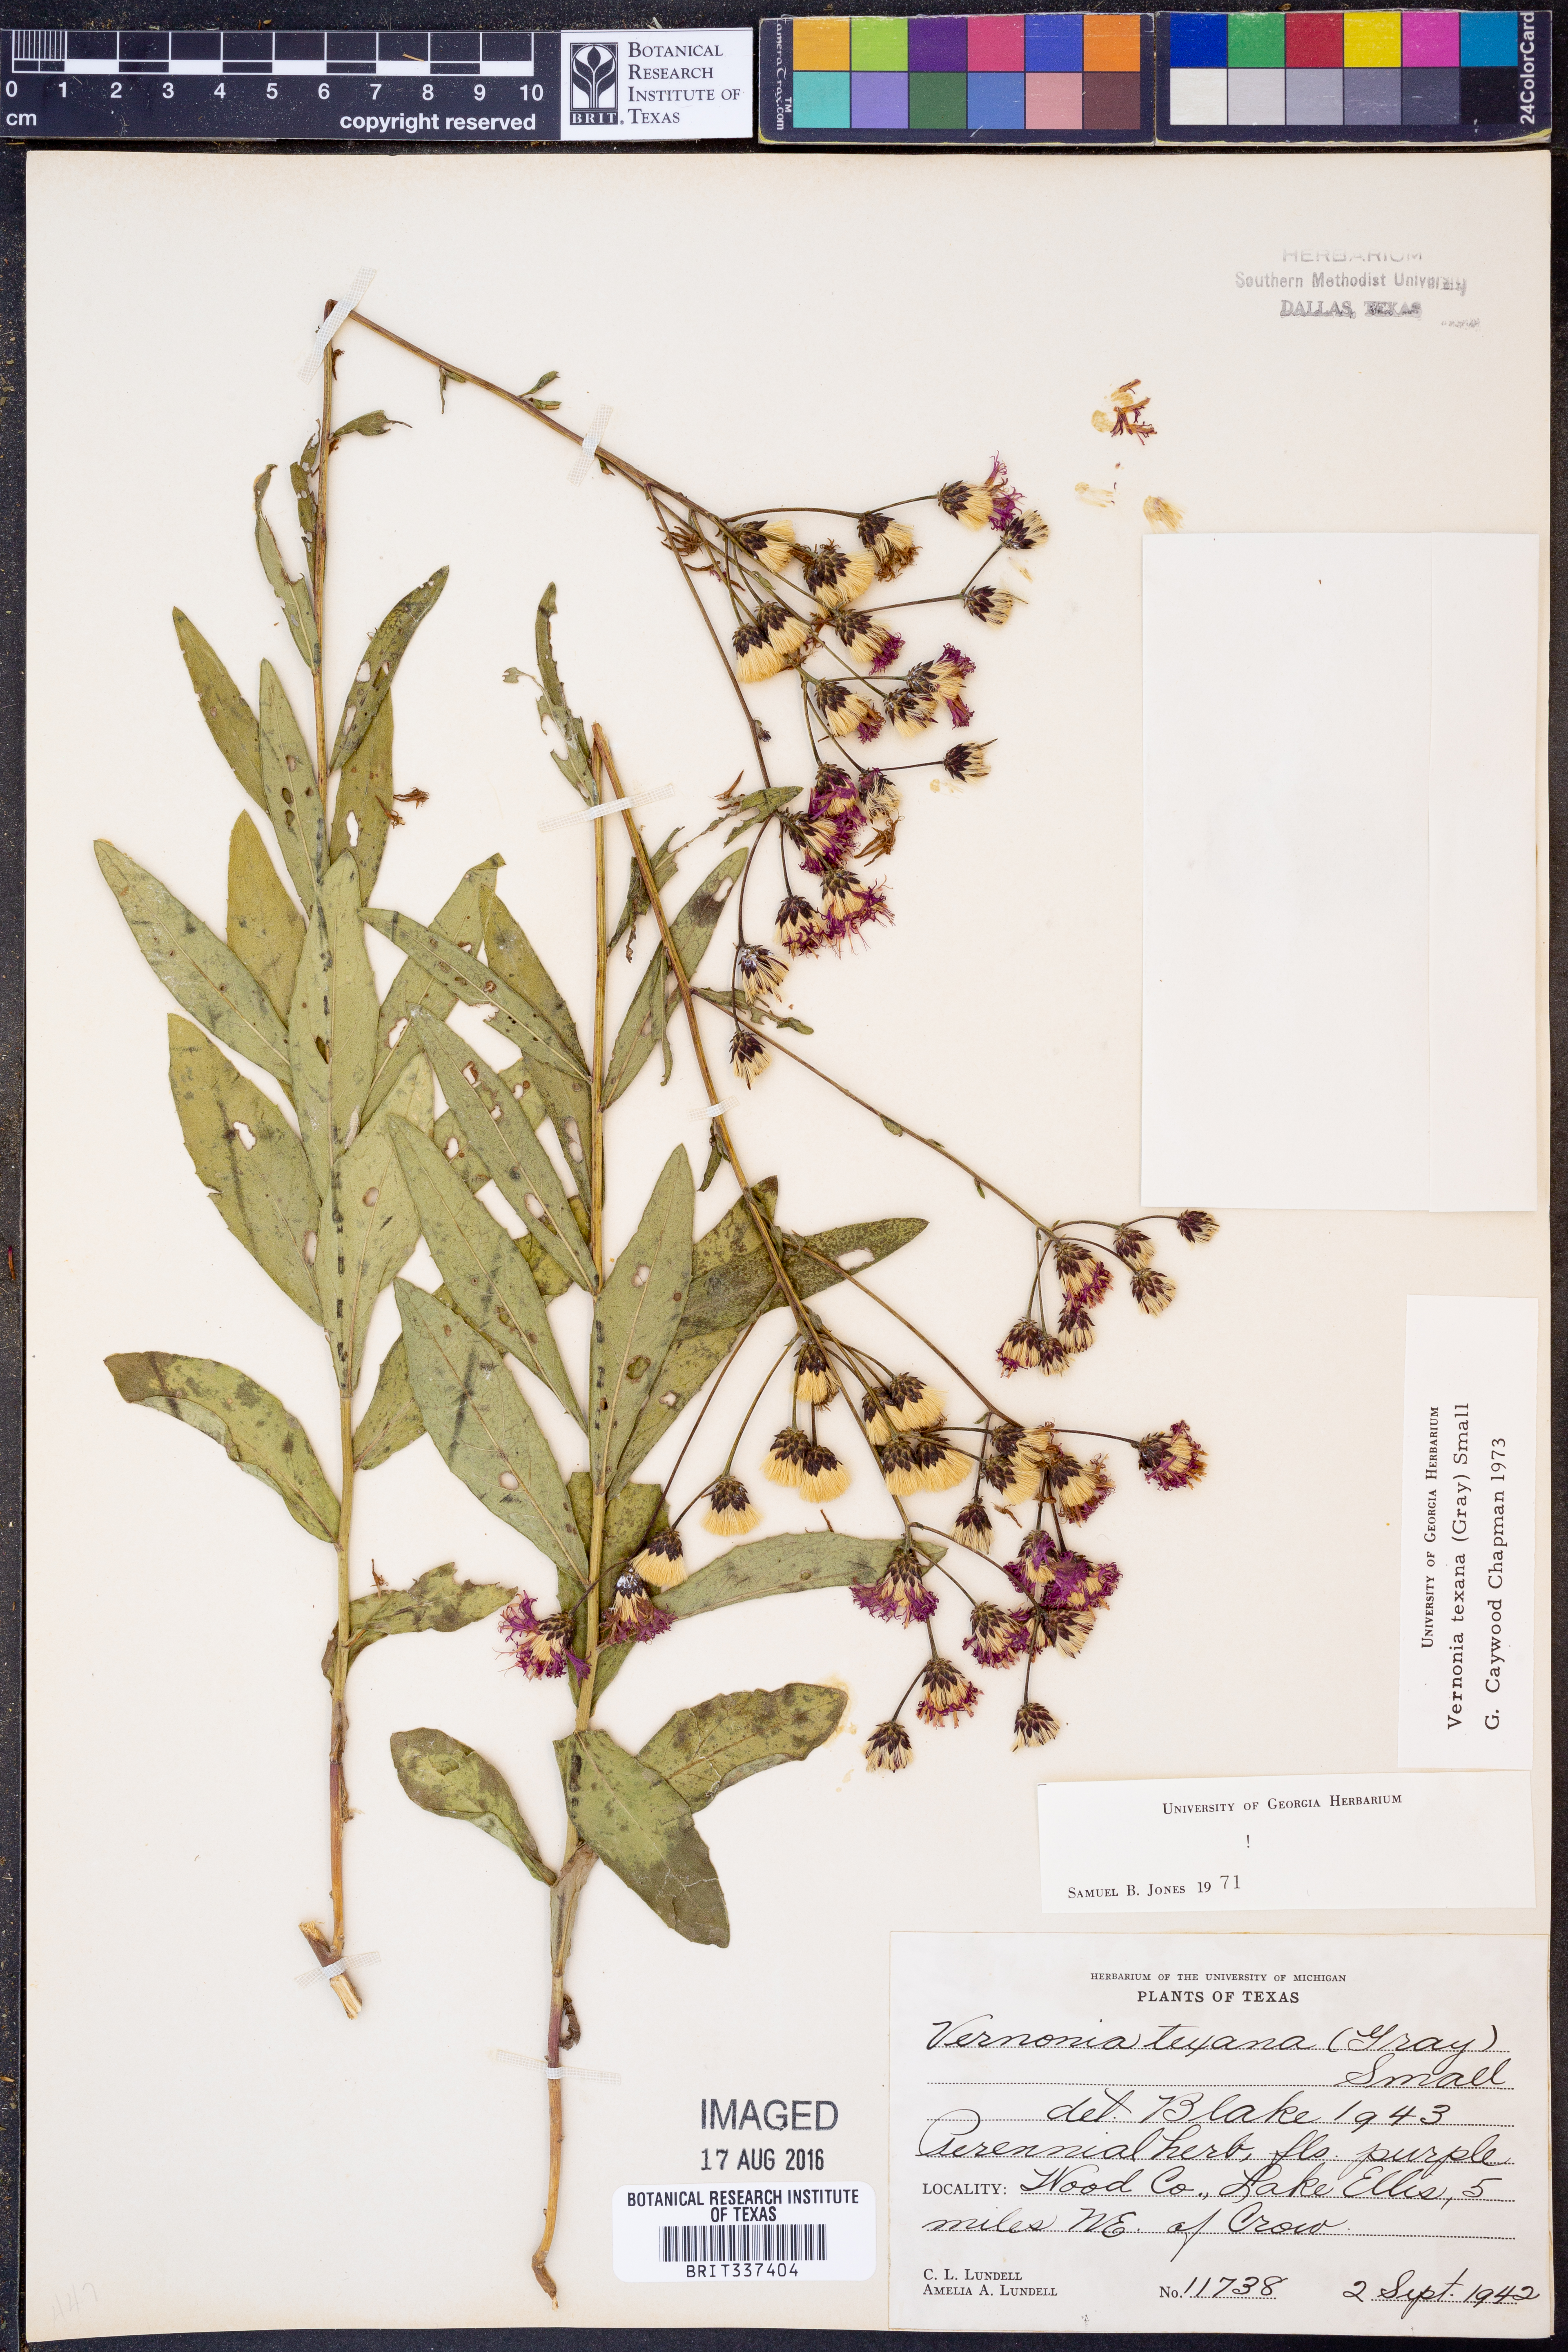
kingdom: Plantae
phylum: Tracheophyta
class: Magnoliopsida
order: Asterales
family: Asteraceae
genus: Vernonia
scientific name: Vernonia texana
